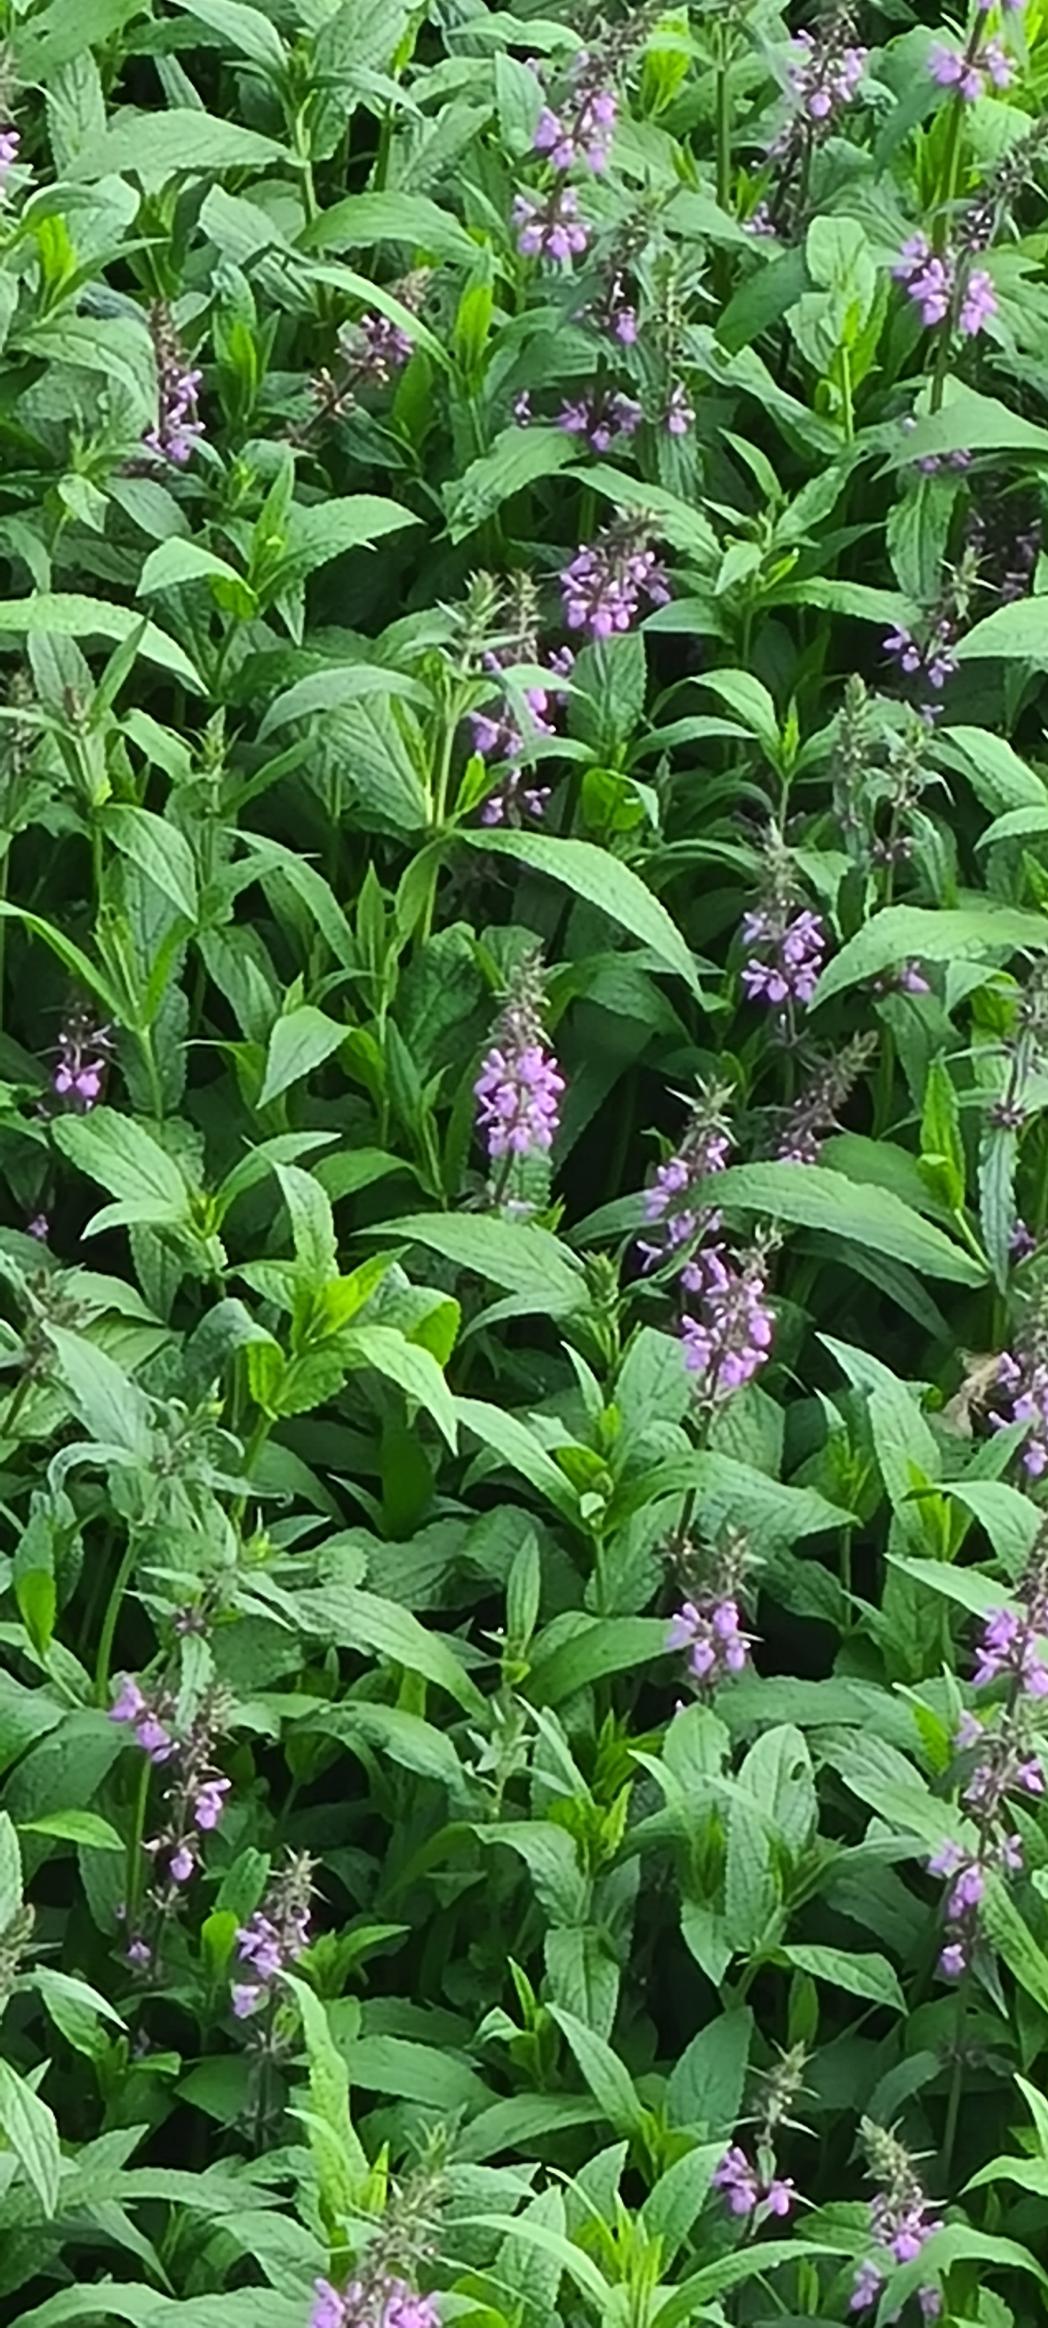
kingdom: Plantae
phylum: Tracheophyta
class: Magnoliopsida
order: Lamiales
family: Lamiaceae
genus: Stachys
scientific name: Stachys palustris
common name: Kær-galtetand
